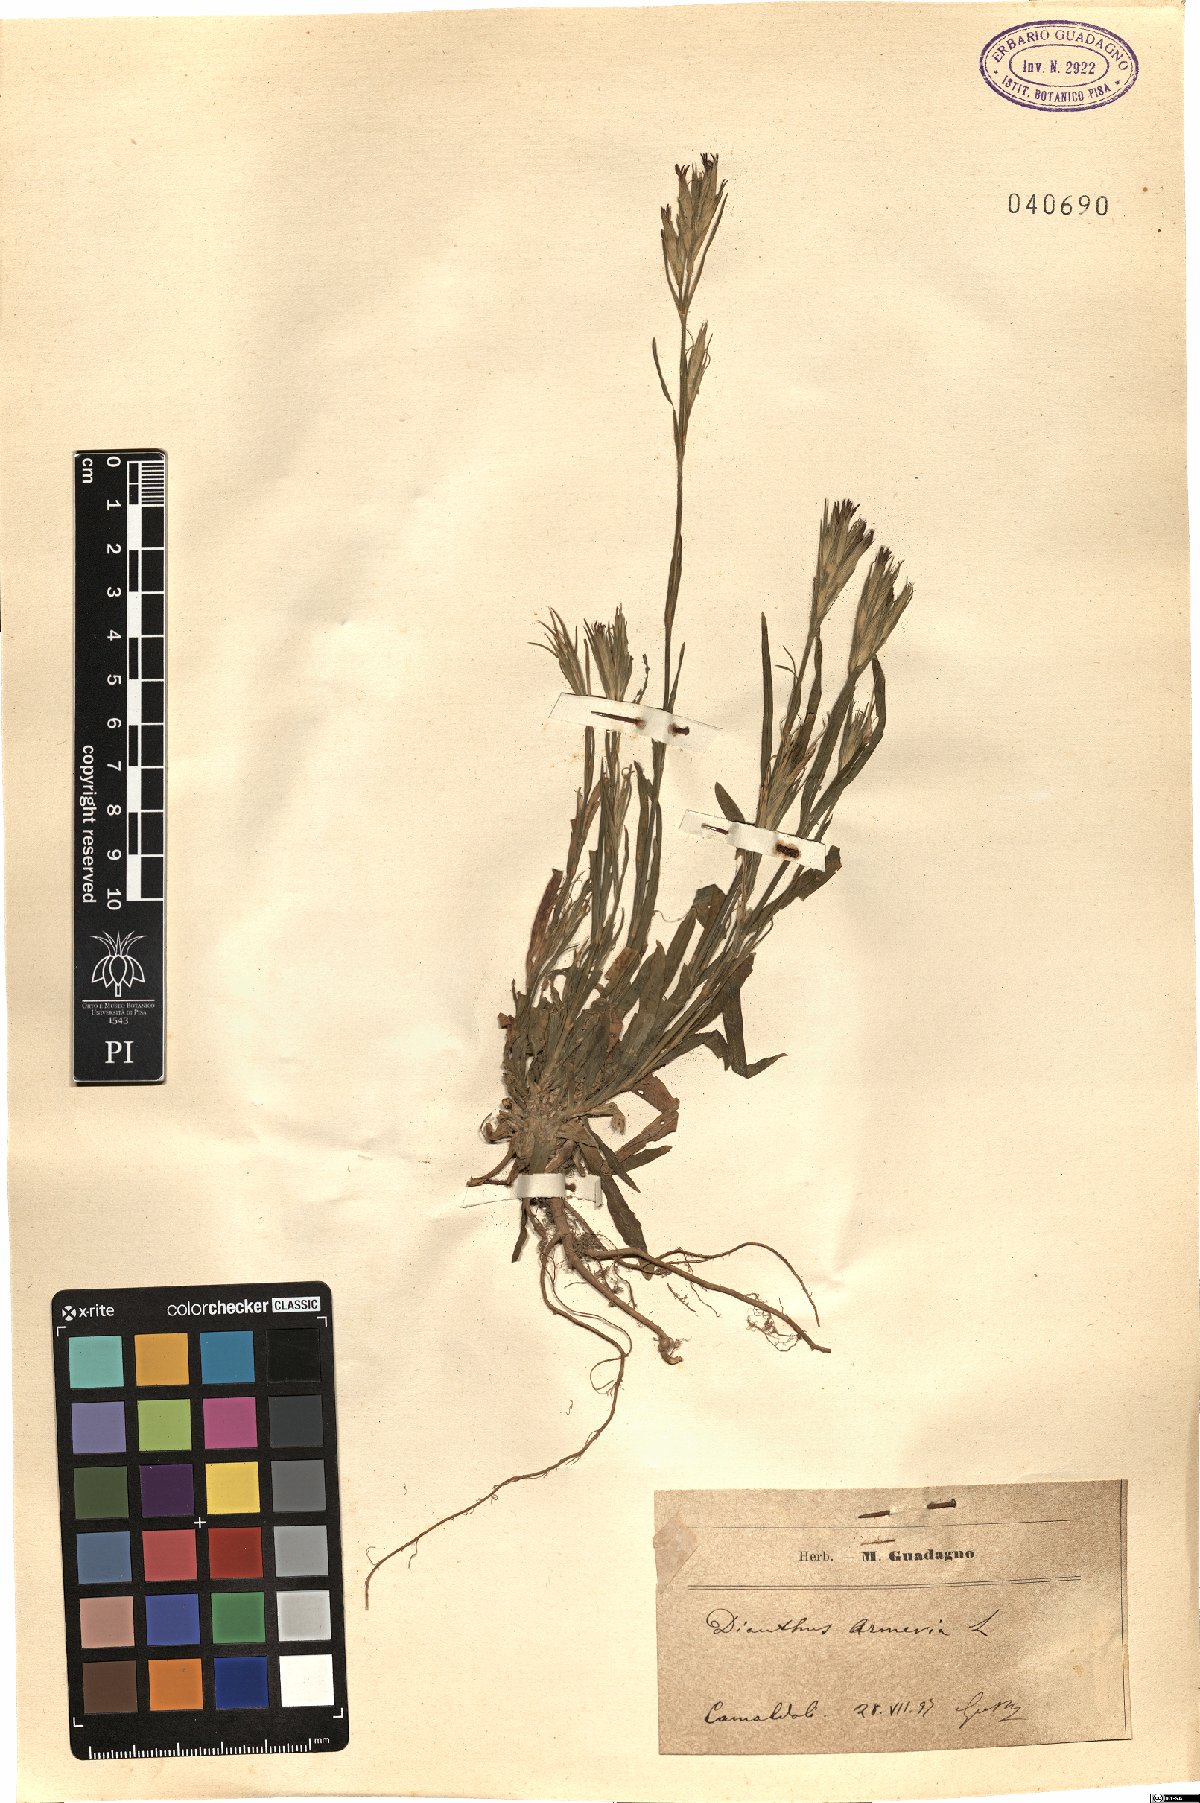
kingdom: Plantae
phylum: Tracheophyta
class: Magnoliopsida
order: Caryophyllales
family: Caryophyllaceae
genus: Dianthus
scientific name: Dianthus armeria
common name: Deptford pink
